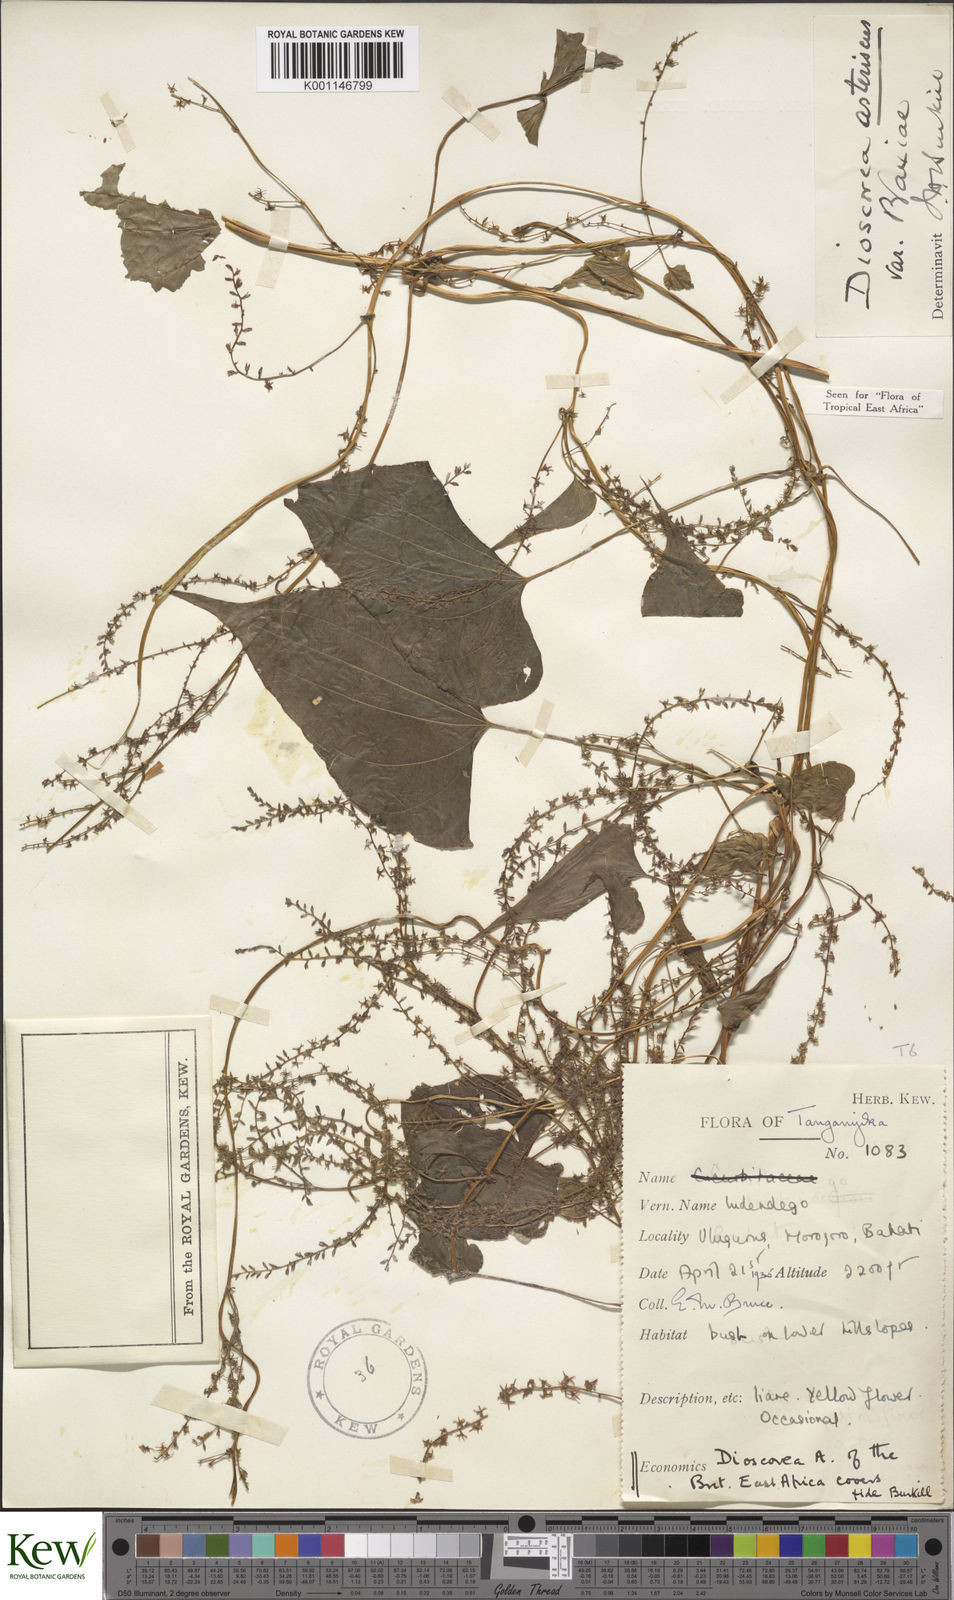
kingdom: Plantae
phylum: Tracheophyta
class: Liliopsida
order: Dioscoreales
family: Dioscoreaceae
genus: Dioscorea
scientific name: Dioscorea asteriscus
